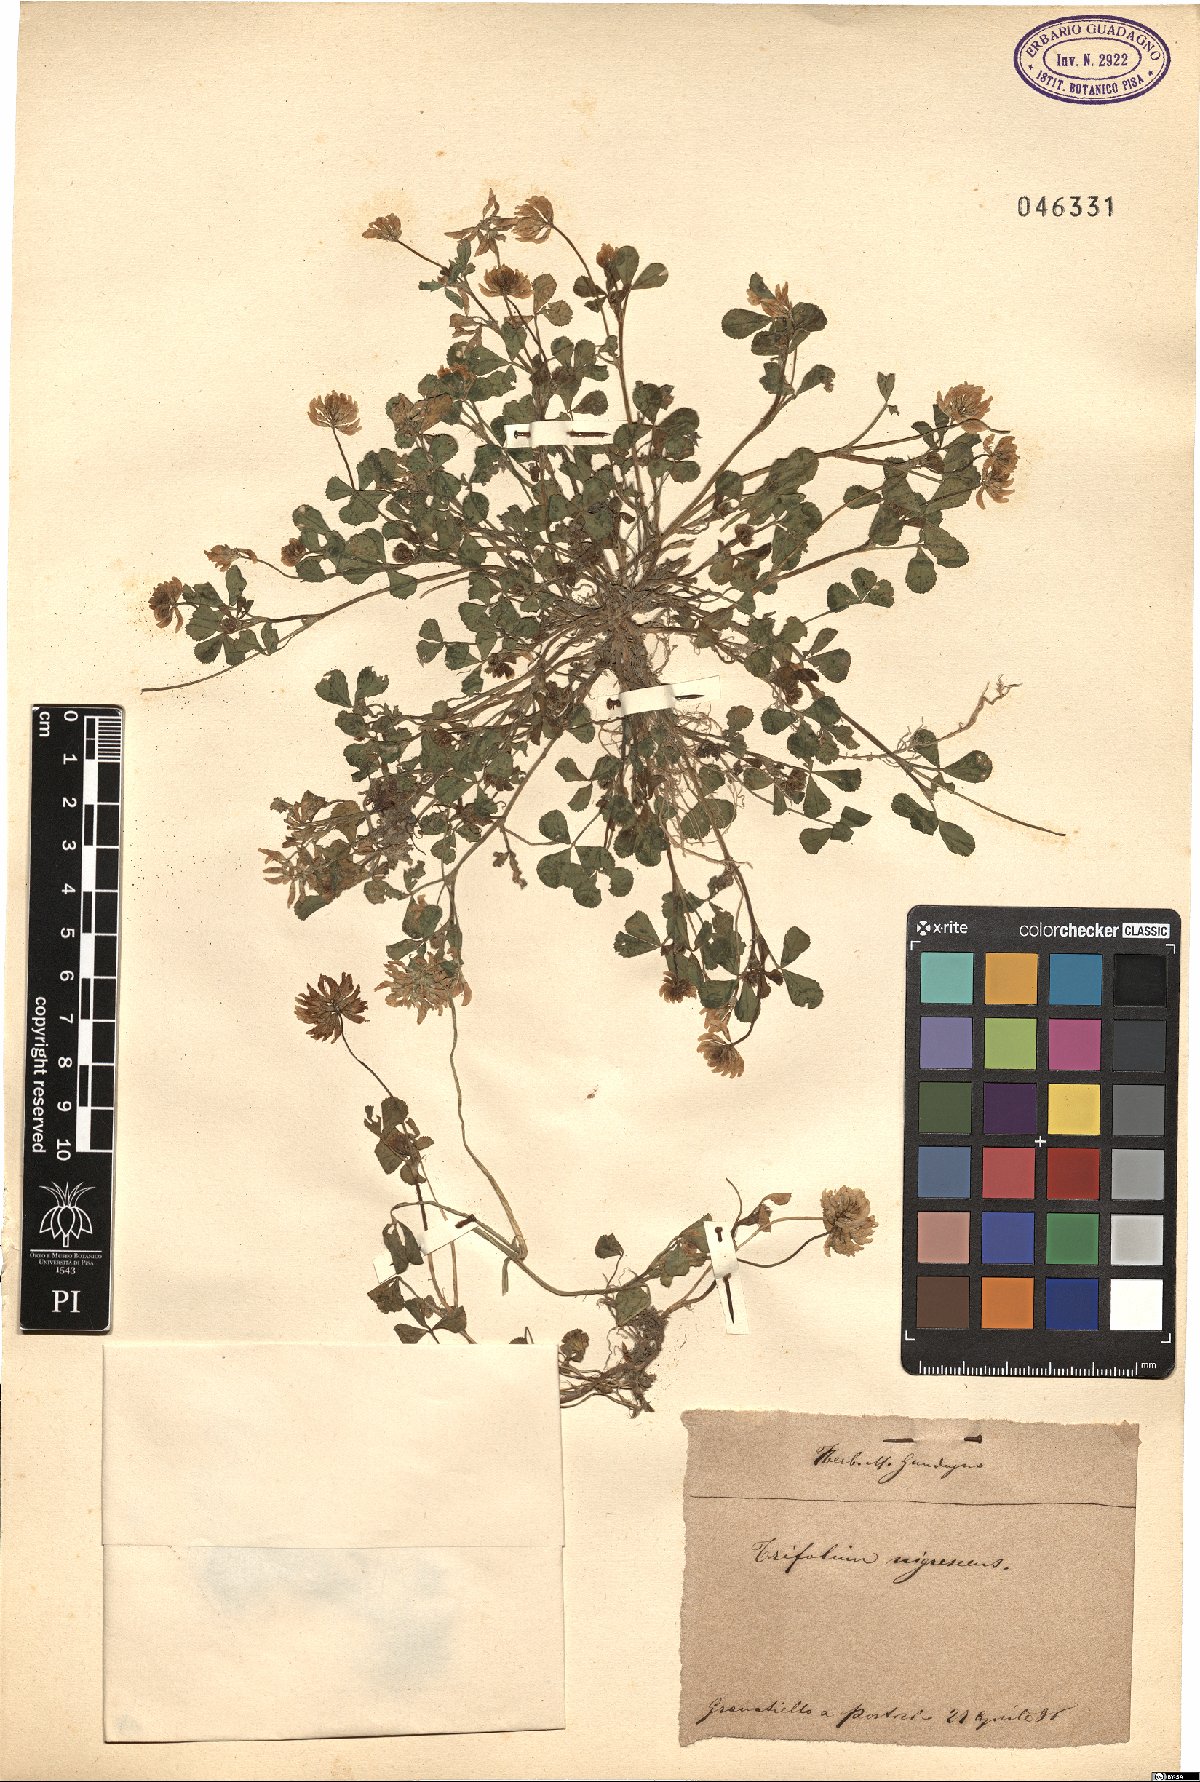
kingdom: Plantae
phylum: Tracheophyta
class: Magnoliopsida
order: Fabales
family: Fabaceae
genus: Trifolium
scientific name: Trifolium nigrescens
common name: Small white clover
